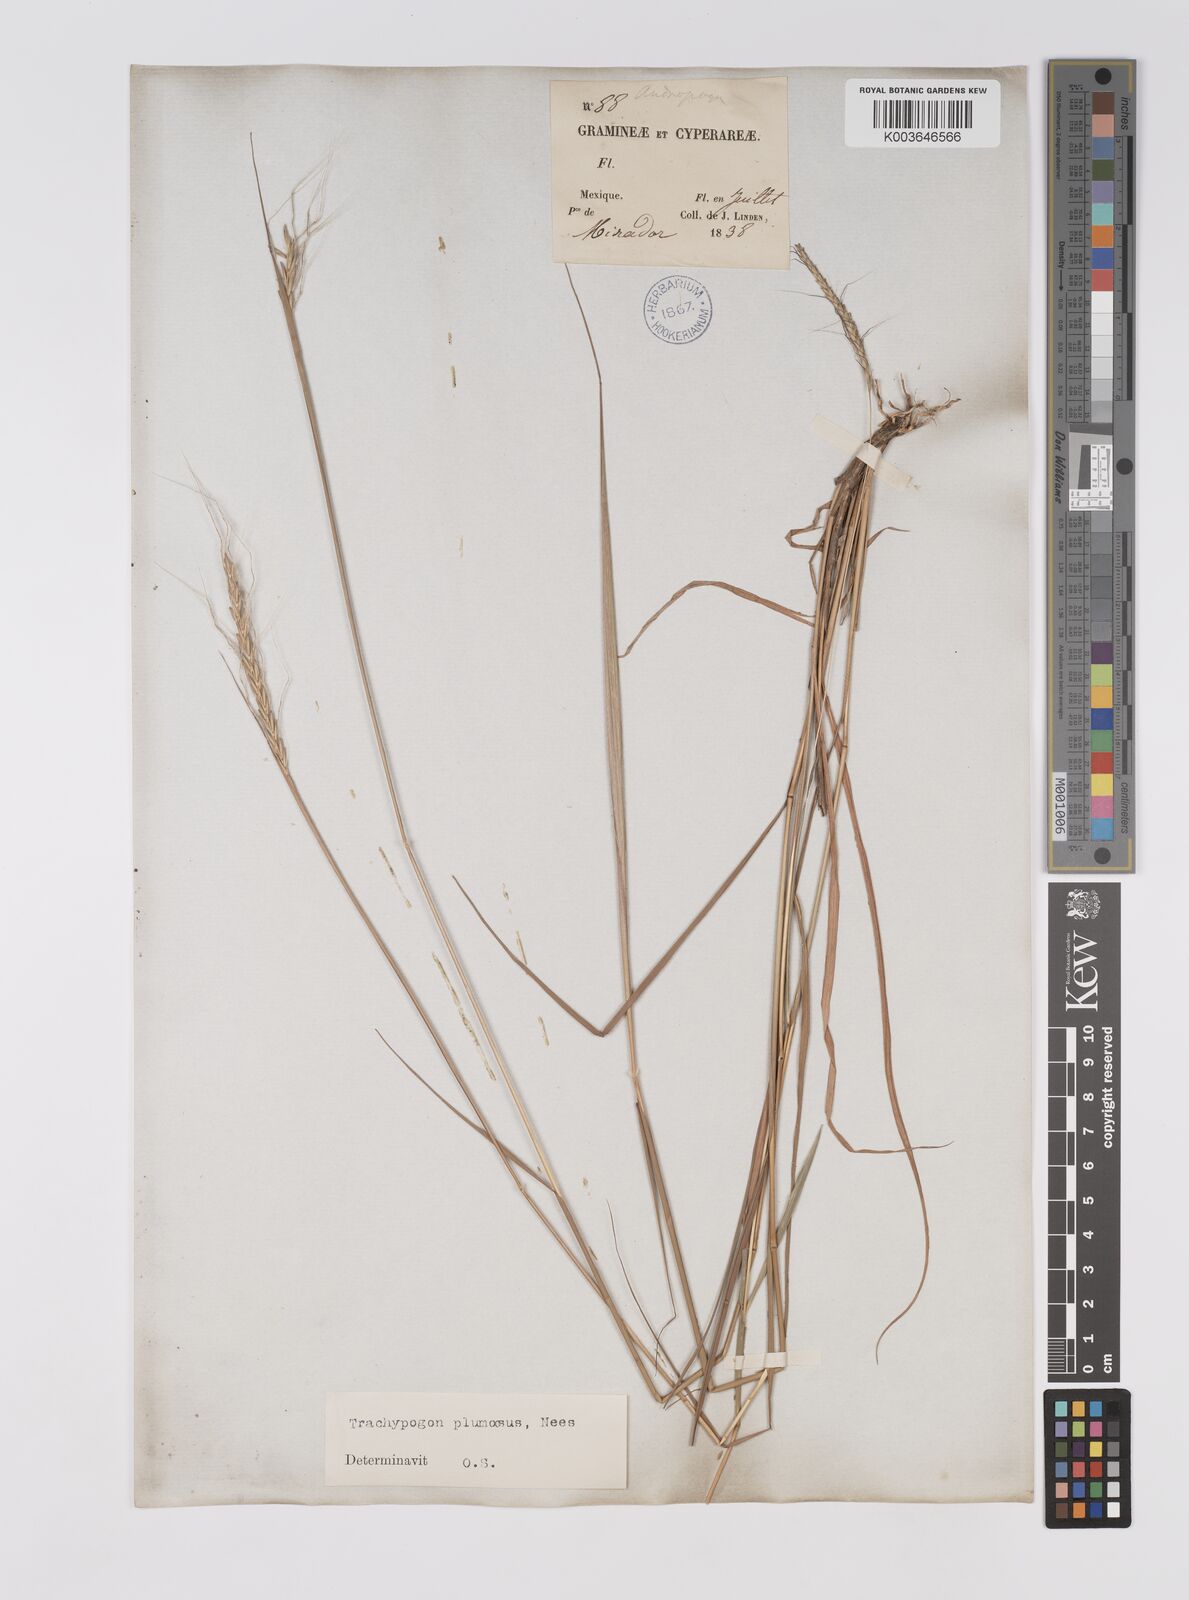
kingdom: Plantae
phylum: Tracheophyta
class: Liliopsida
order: Poales
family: Poaceae
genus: Trachypogon
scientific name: Trachypogon spicatus
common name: Crinkle-awn
